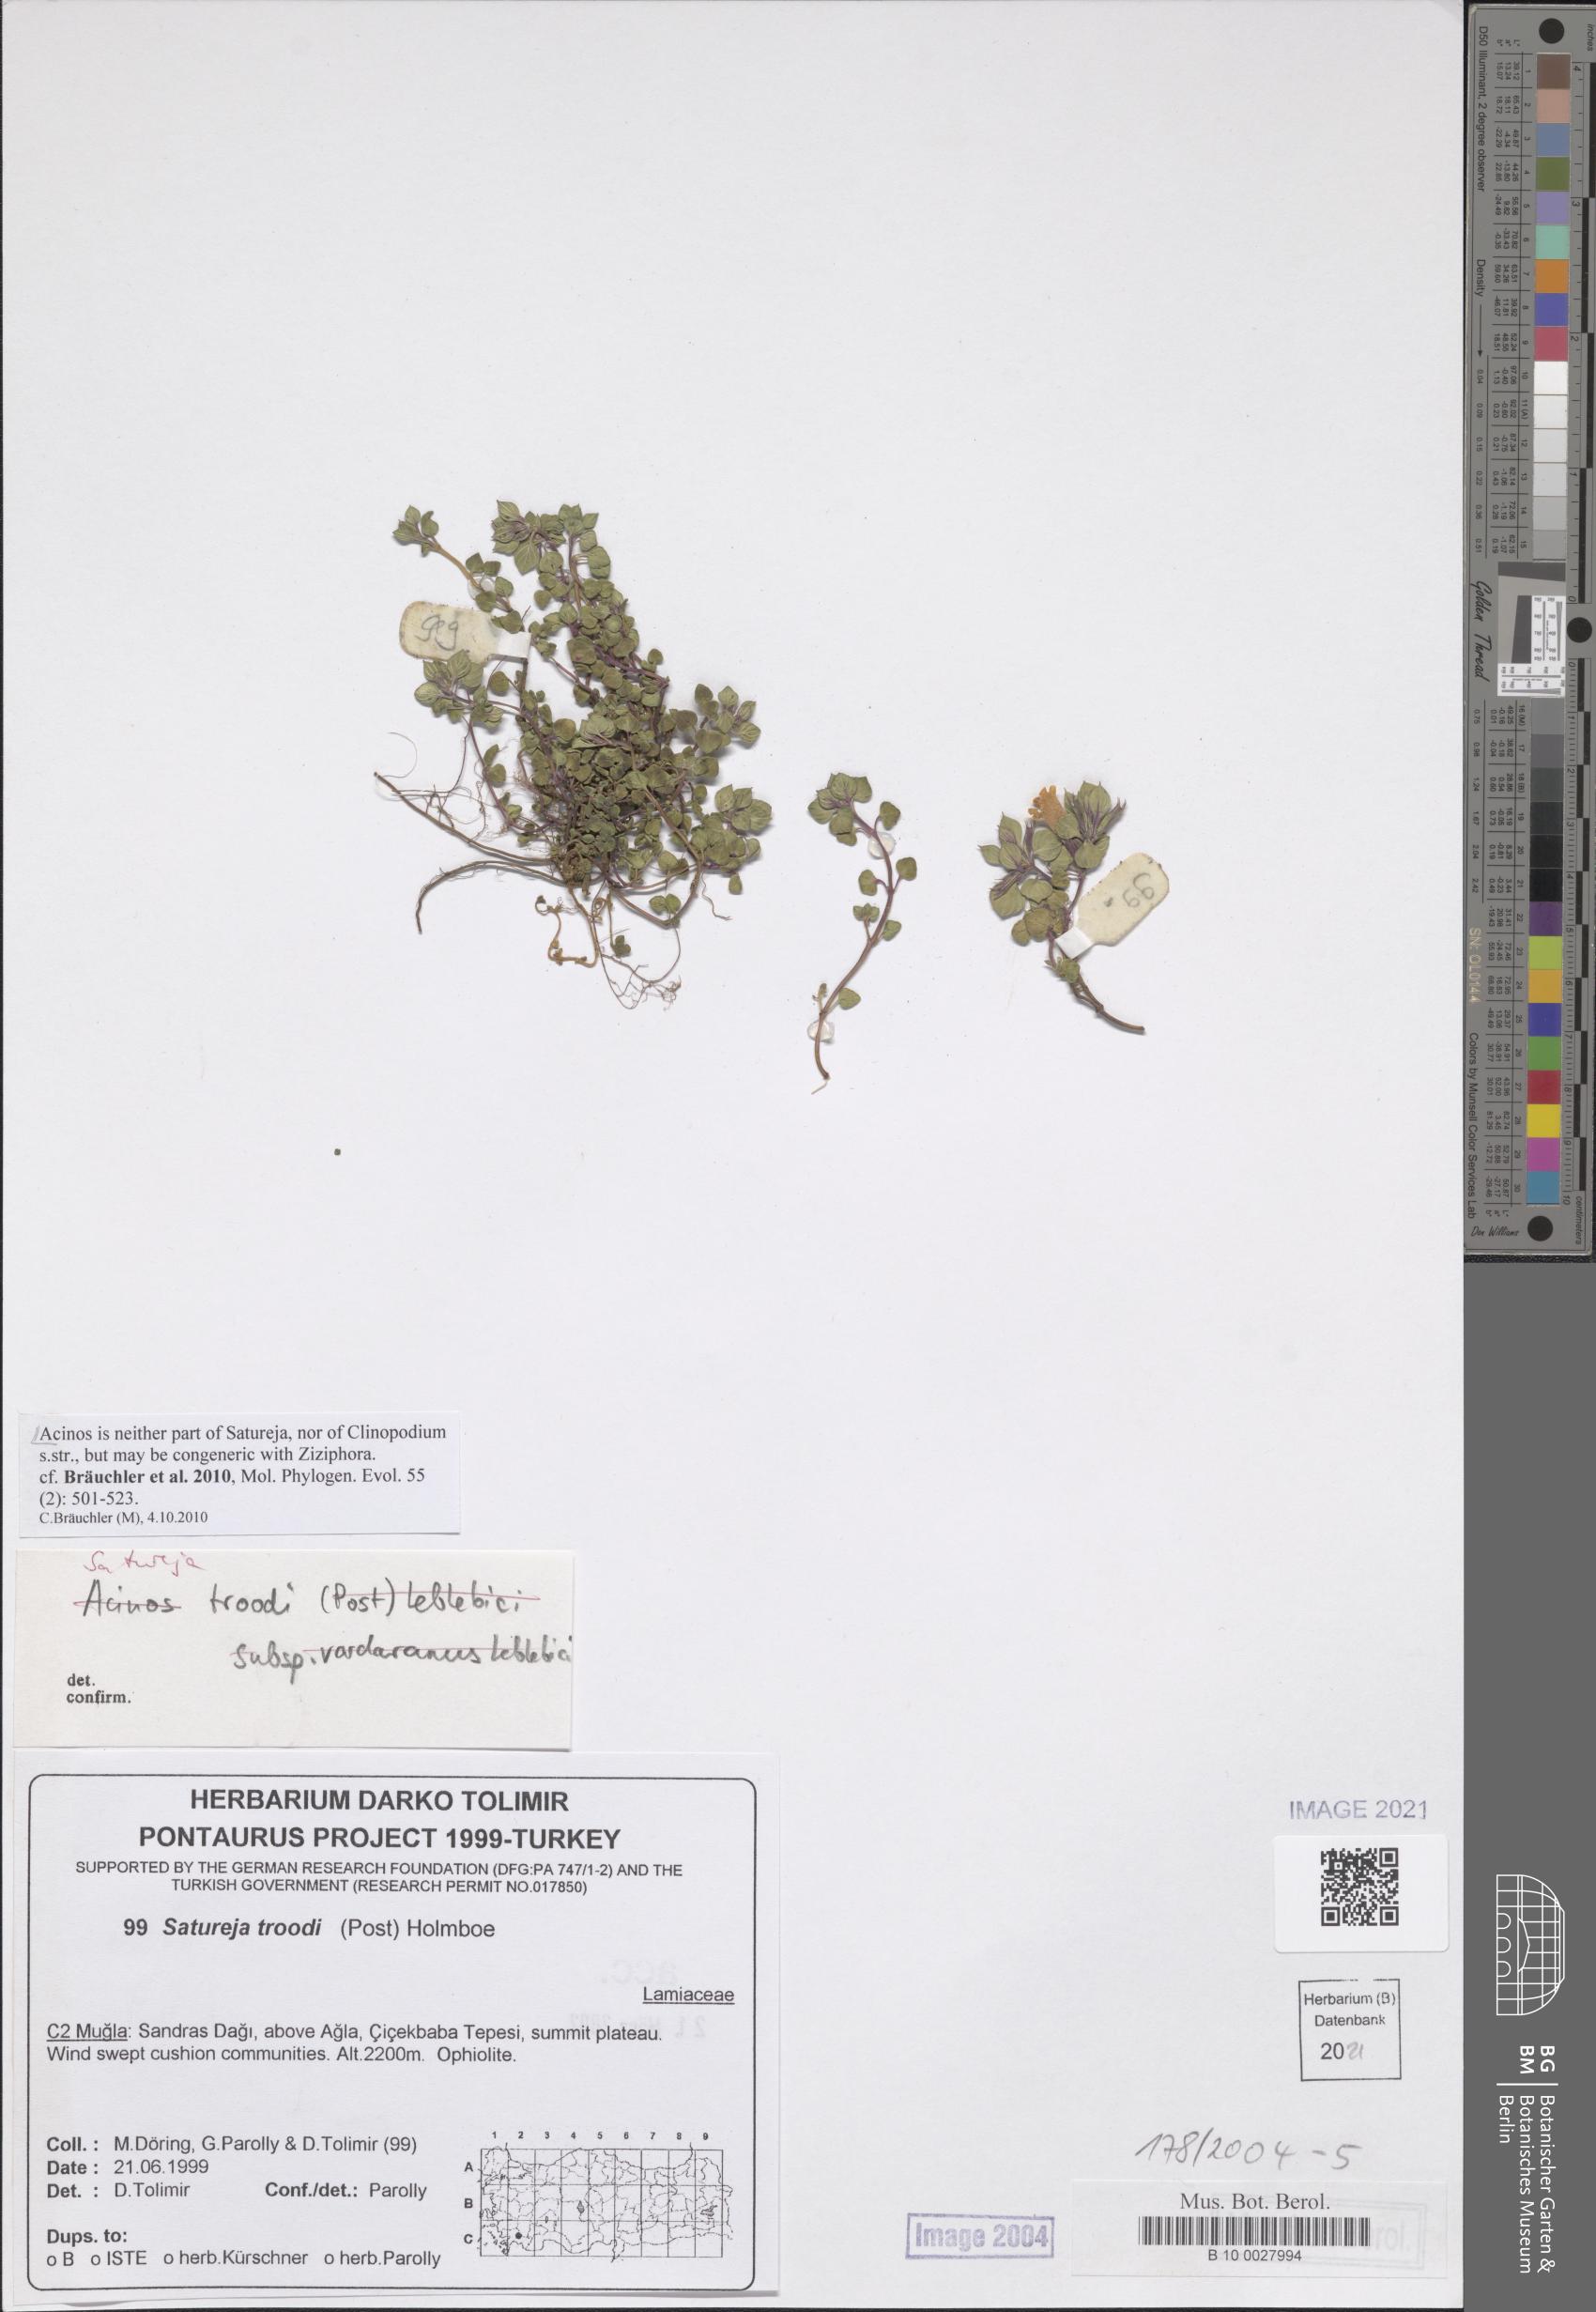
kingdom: Plantae
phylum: Tracheophyta
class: Magnoliopsida
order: Lamiales
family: Lamiaceae
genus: Clinopodium
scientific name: Clinopodium troodi
